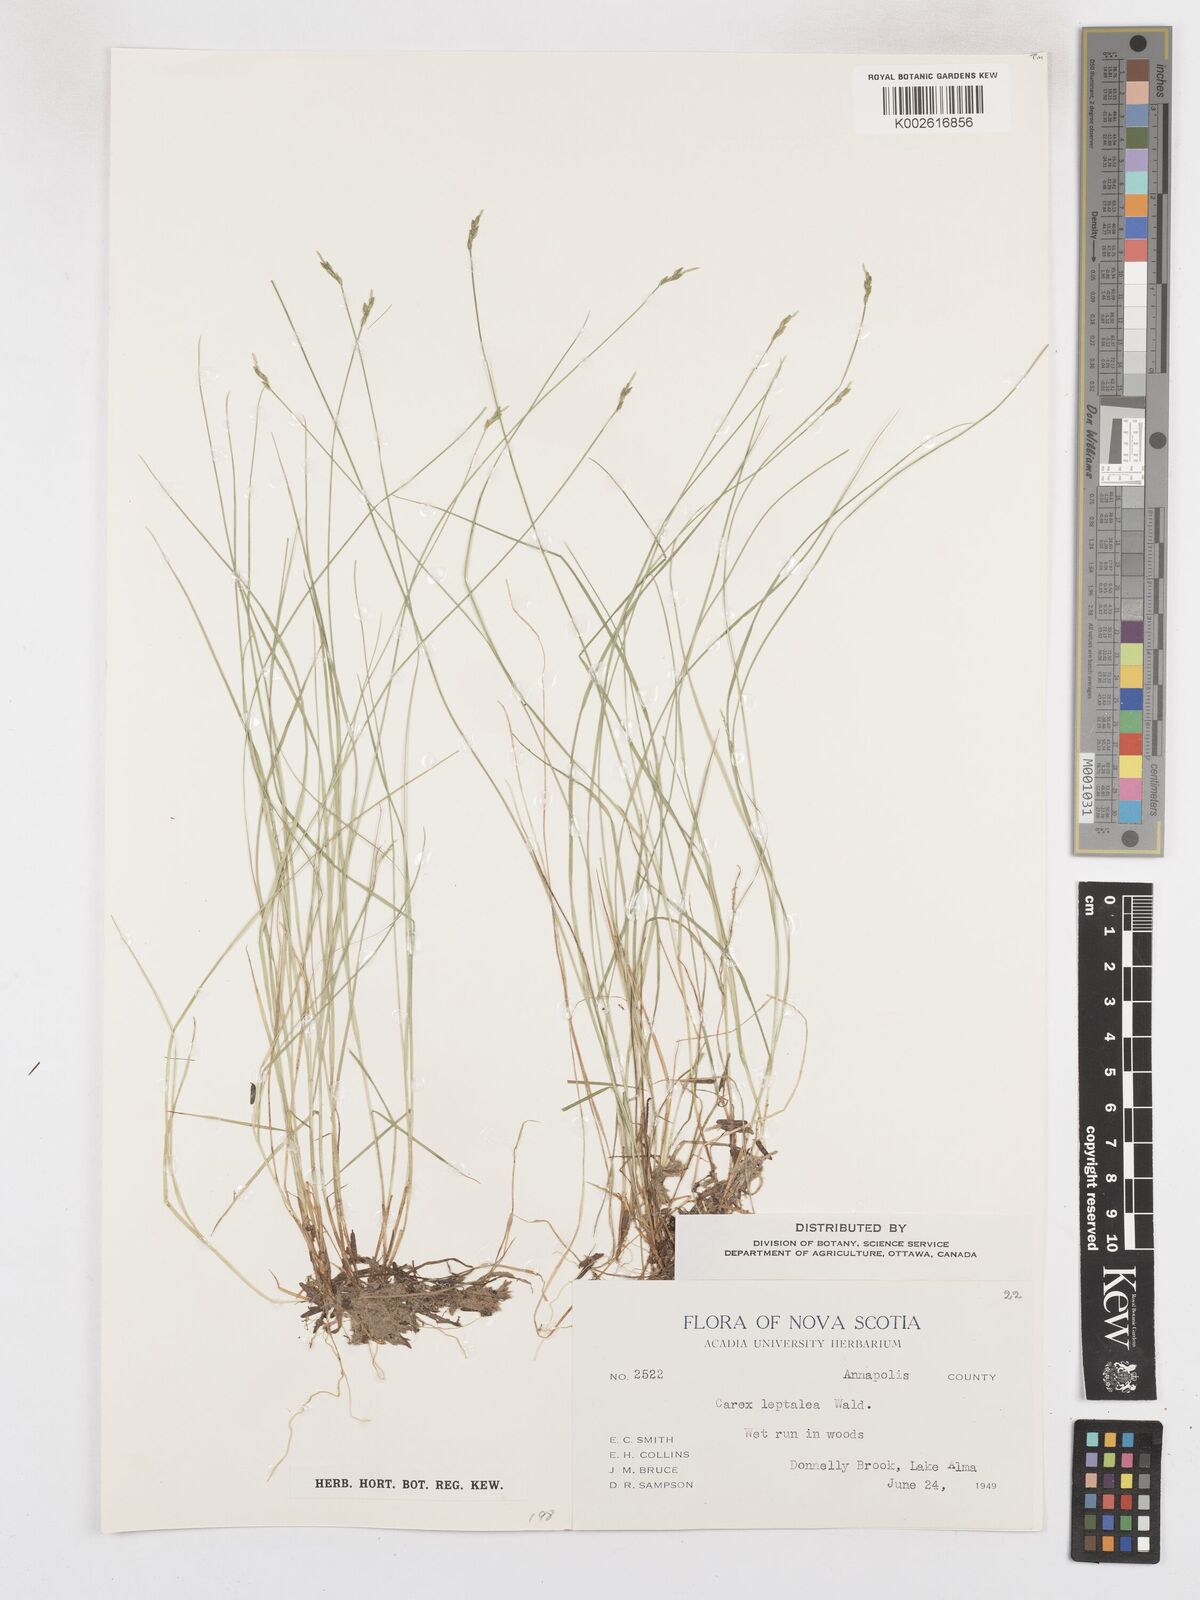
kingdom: Plantae
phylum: Tracheophyta
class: Liliopsida
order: Poales
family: Cyperaceae
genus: Carex
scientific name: Carex leptalea
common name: Bristly-stalked sedge
